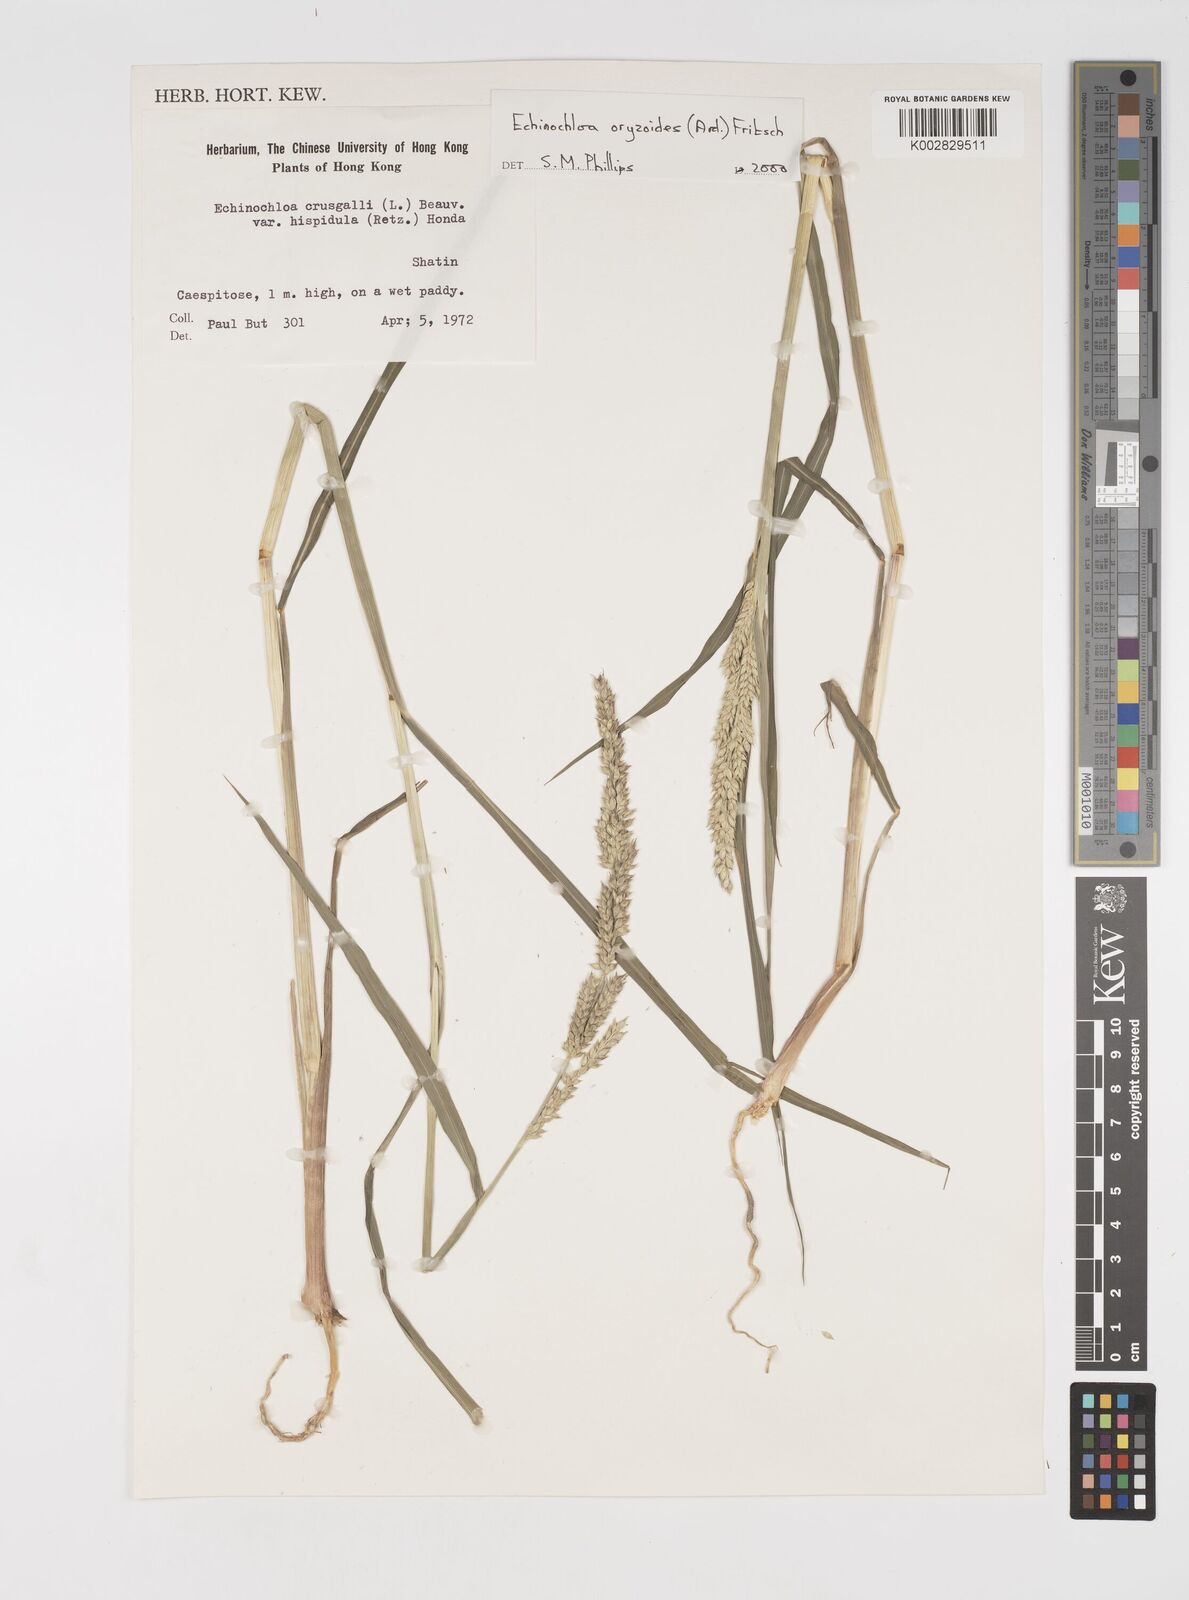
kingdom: Plantae
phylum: Tracheophyta
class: Liliopsida
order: Poales
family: Poaceae
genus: Echinochloa
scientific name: Echinochloa oryzoides
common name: Early water grass
